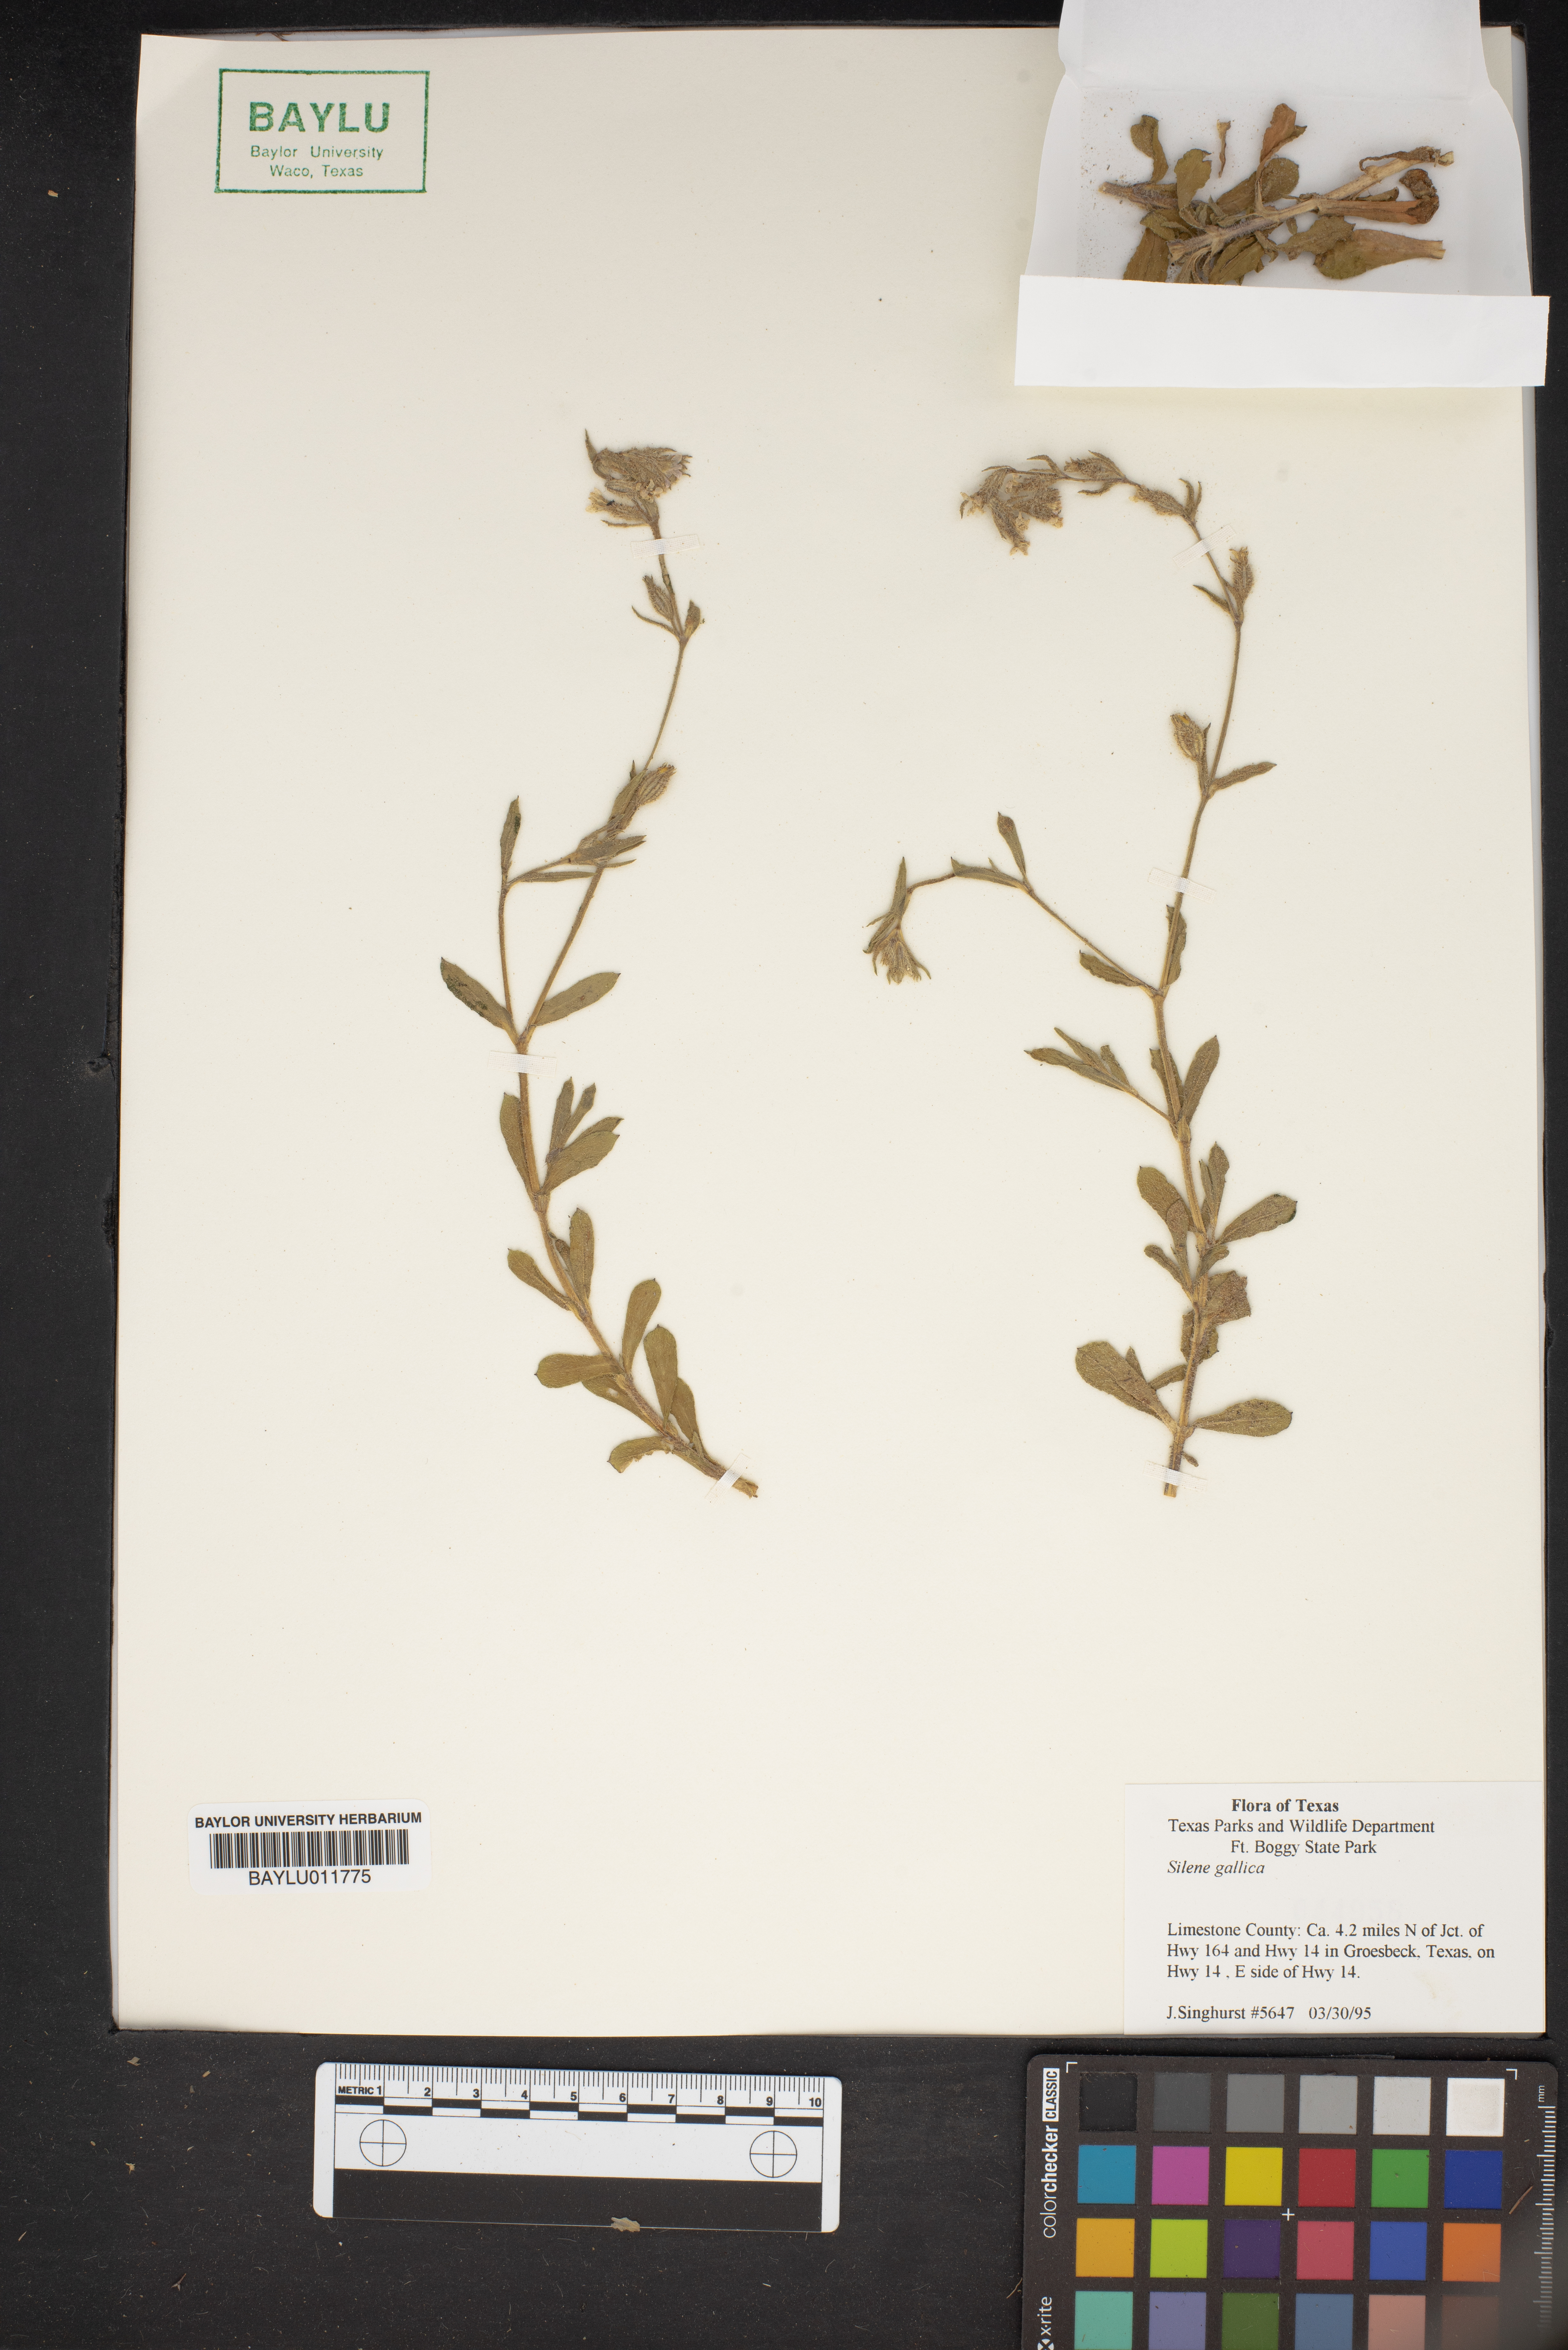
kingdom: Plantae
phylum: Tracheophyta
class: Magnoliopsida
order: Caryophyllales
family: Caryophyllaceae
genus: Silene
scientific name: Silene gallica
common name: Small-flowered catchfly
